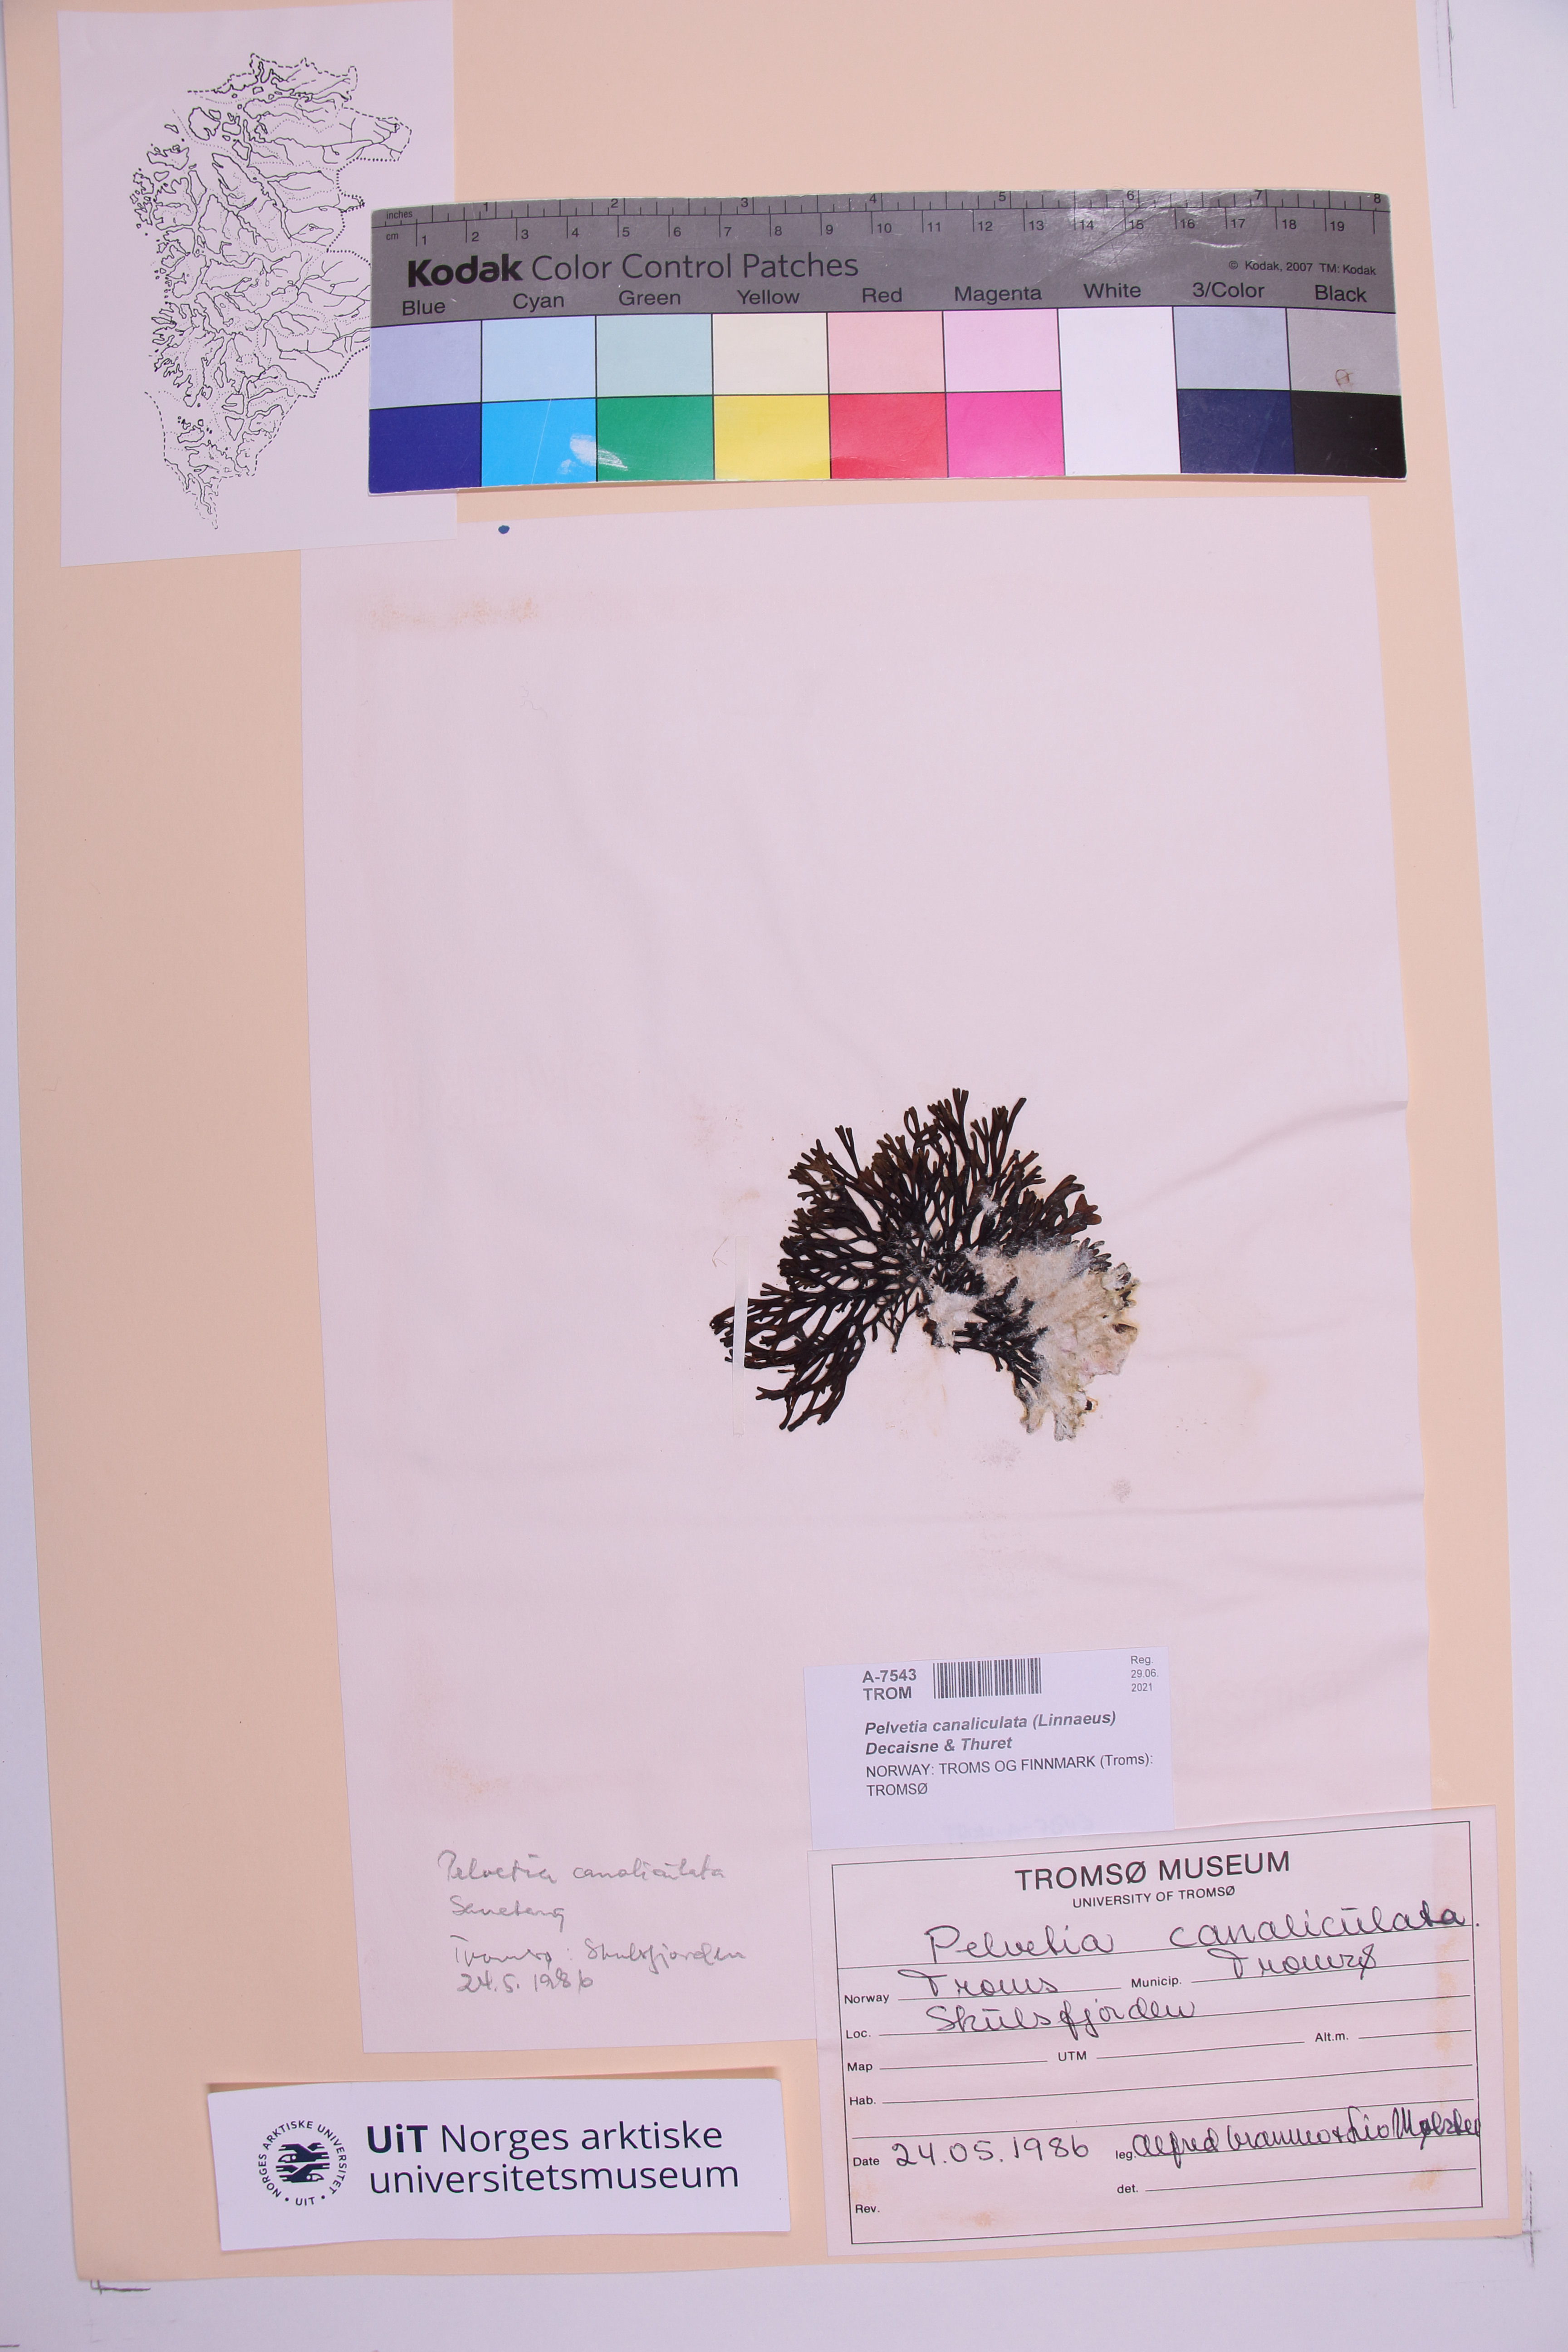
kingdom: Chromista
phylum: Ochrophyta
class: Phaeophyceae
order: Fucales
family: Fucaceae
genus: Pelvetia
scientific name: Pelvetia canaliculata
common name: Channelled wrack
